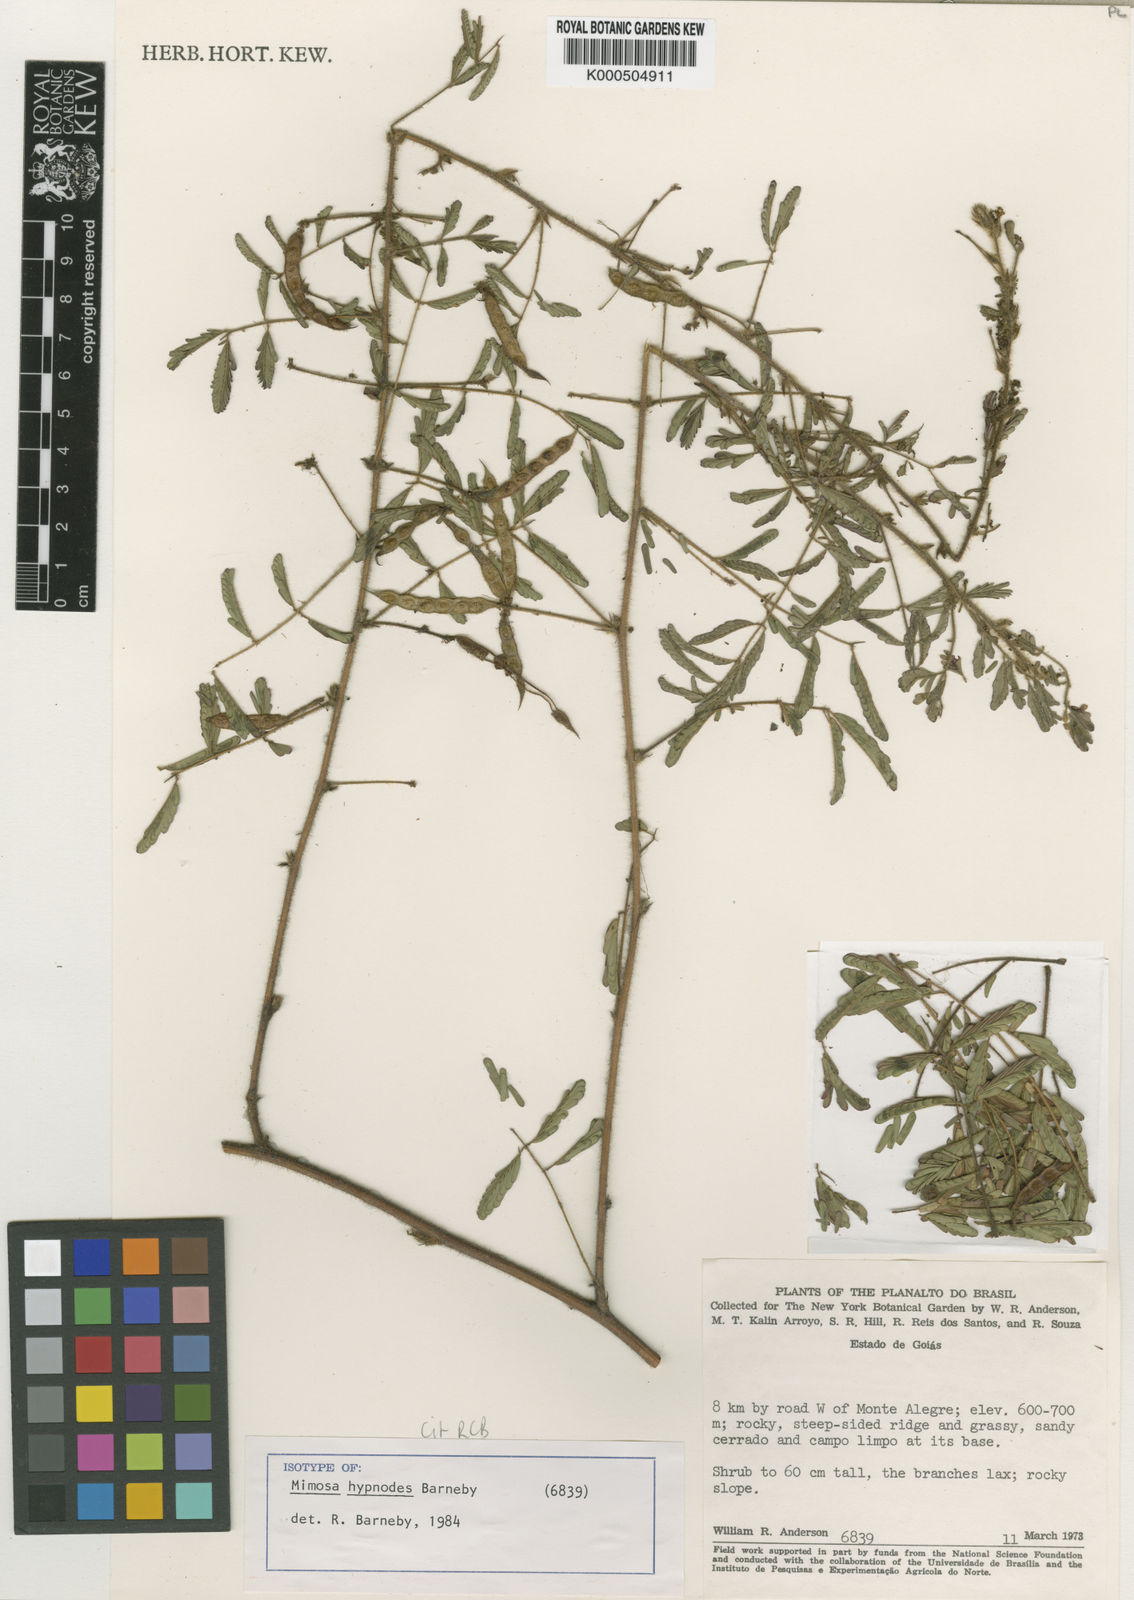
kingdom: Plantae
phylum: Tracheophyta
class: Magnoliopsida
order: Fabales
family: Fabaceae
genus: Mimosa
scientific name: Mimosa hypnodes
